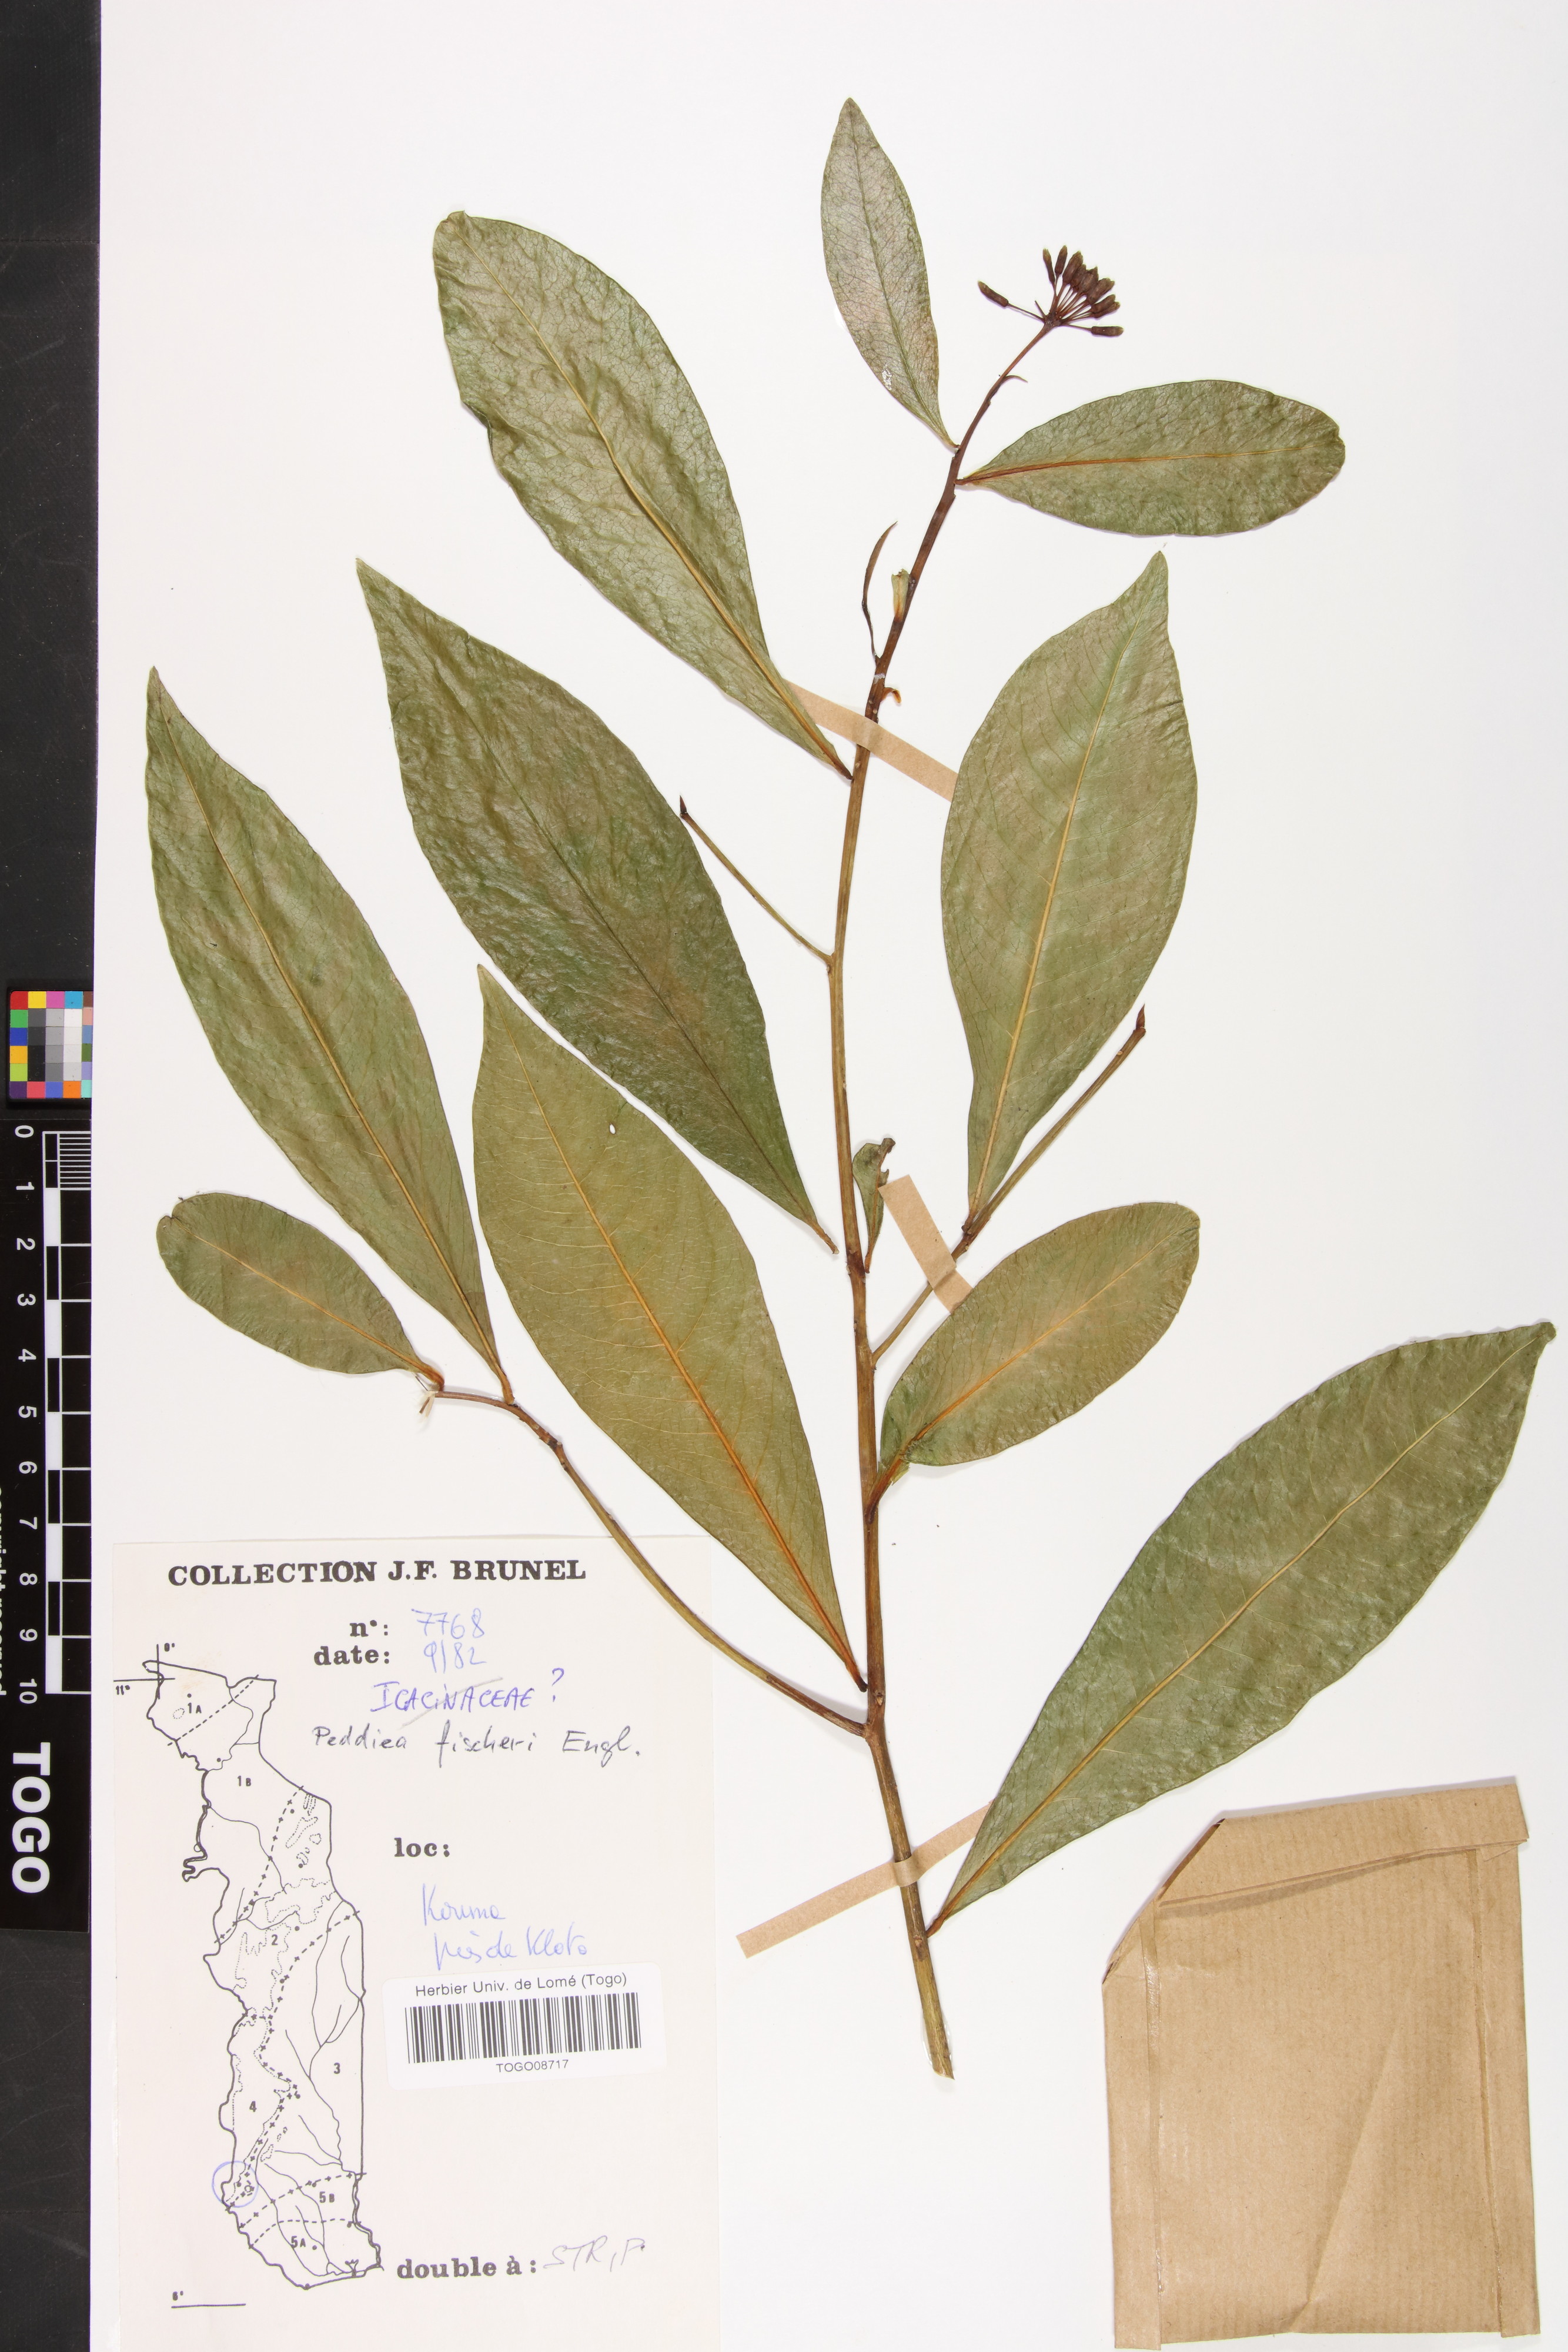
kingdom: Plantae
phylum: Tracheophyta
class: Magnoliopsida
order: Malvales
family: Thymelaeaceae
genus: Peddiea
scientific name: Peddiea fischeri
